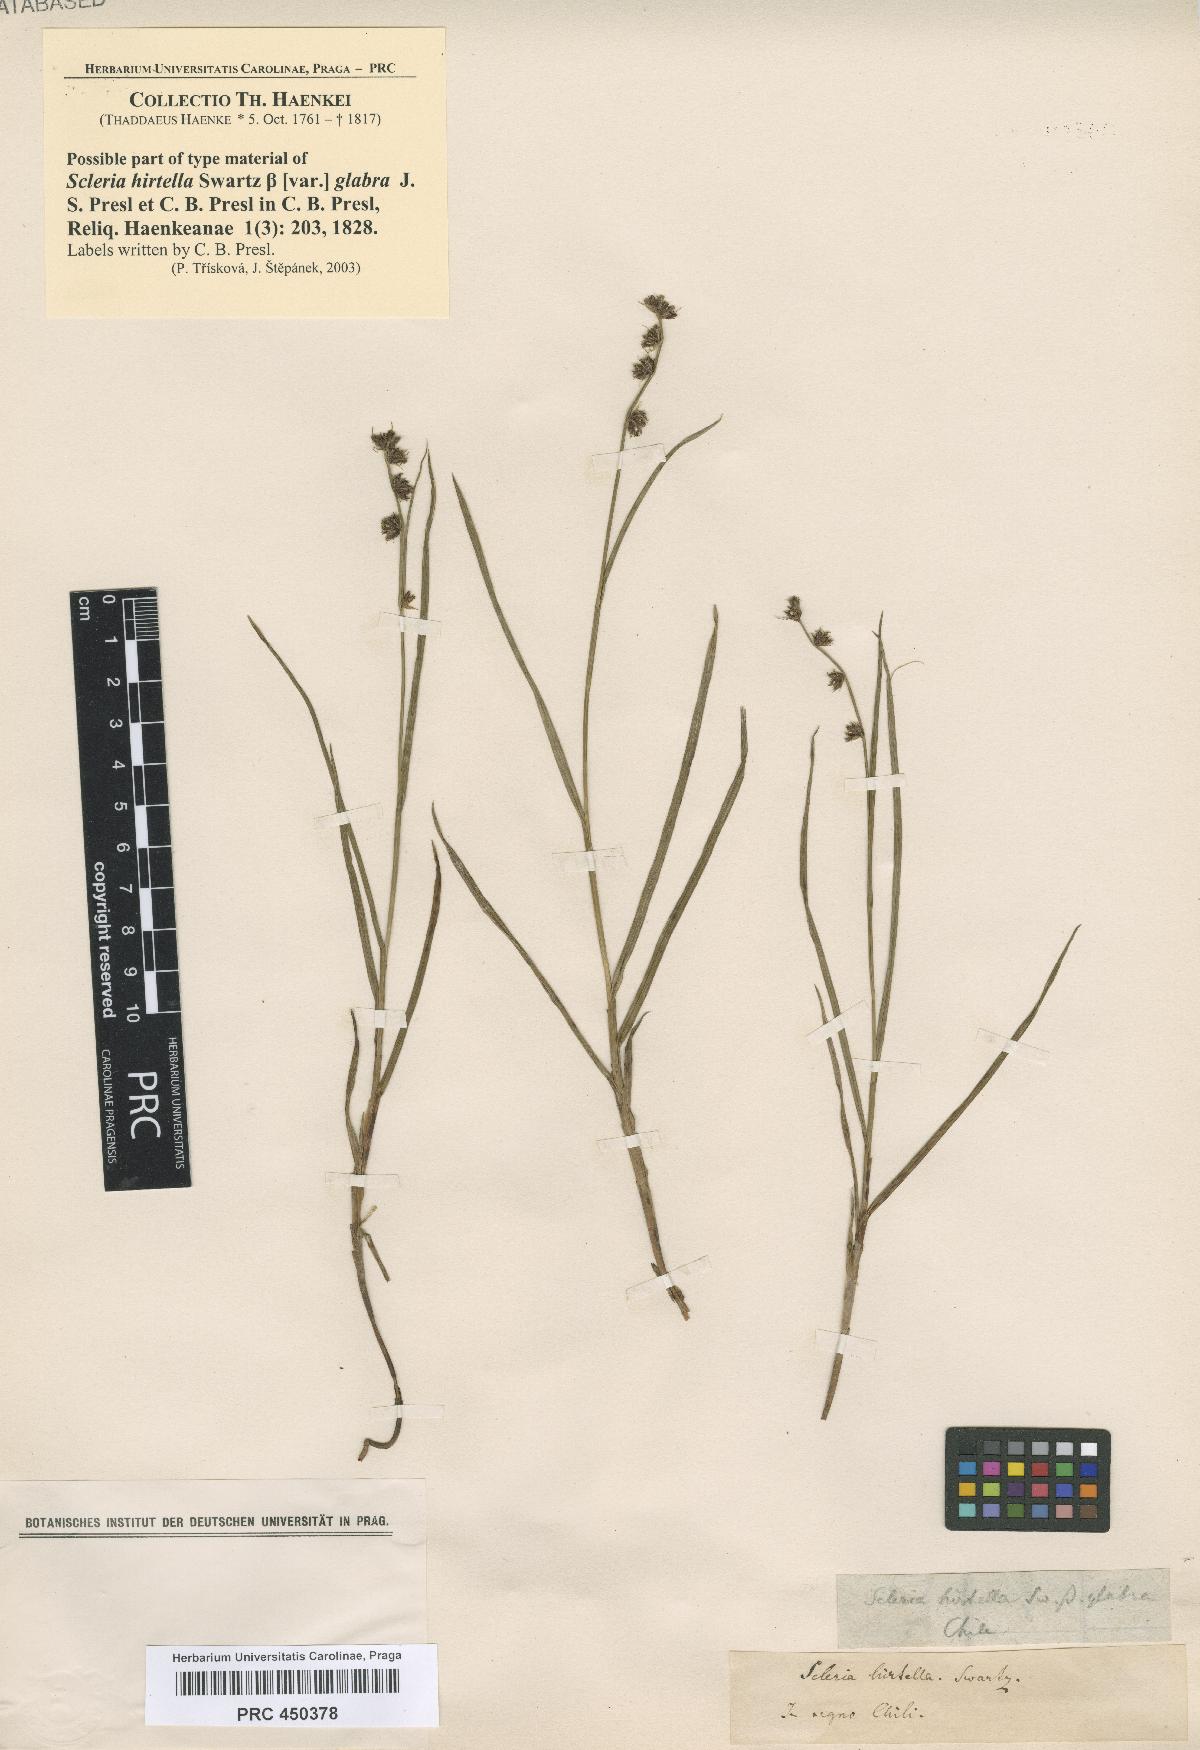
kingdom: Plantae
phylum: Tracheophyta
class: Liliopsida
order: Poales
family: Cyperaceae
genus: Scleria
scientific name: Scleria hirtella
